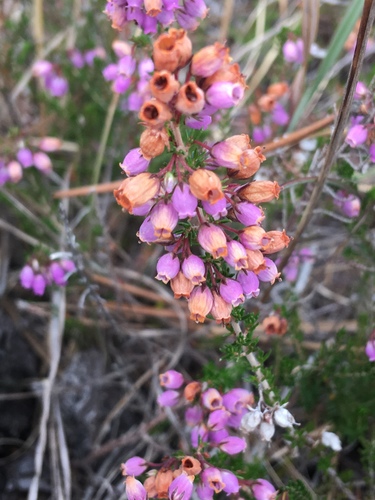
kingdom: Plantae
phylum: Tracheophyta
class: Magnoliopsida
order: Ericales
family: Ericaceae
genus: Erica
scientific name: Erica cinerea
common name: Bell heather
